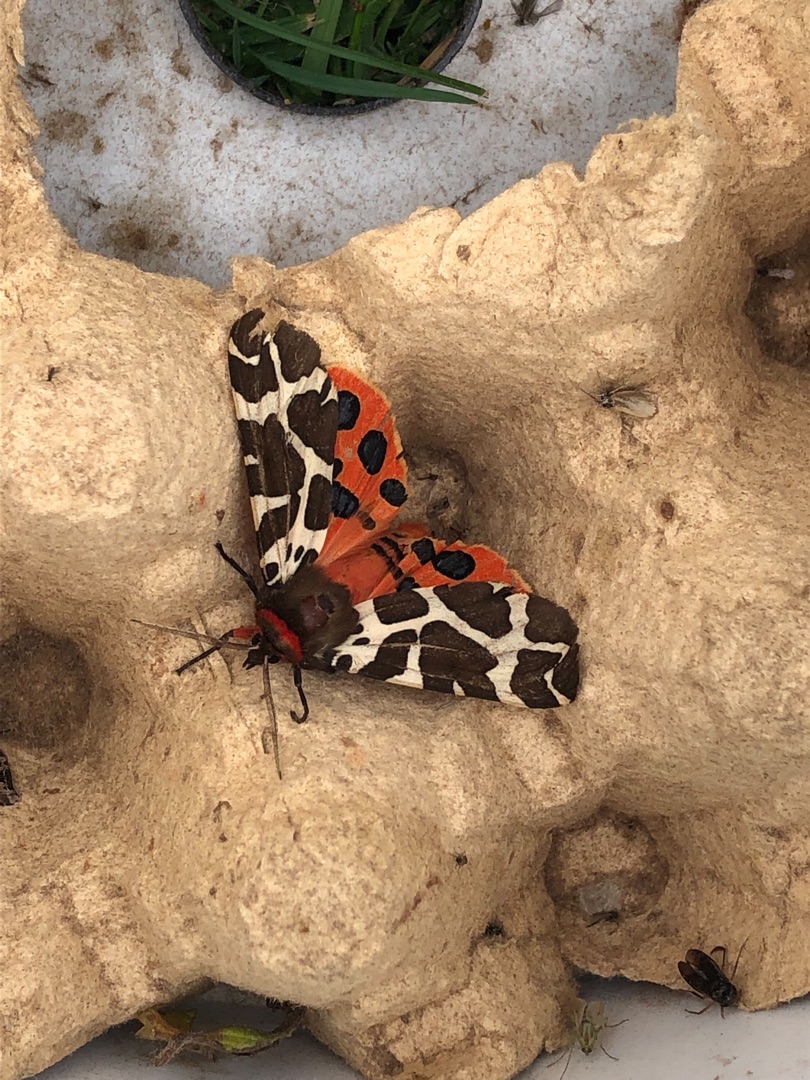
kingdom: Animalia
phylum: Arthropoda
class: Insecta
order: Lepidoptera
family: Erebidae
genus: Arctia
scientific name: Arctia caja
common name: Brun bjørn
